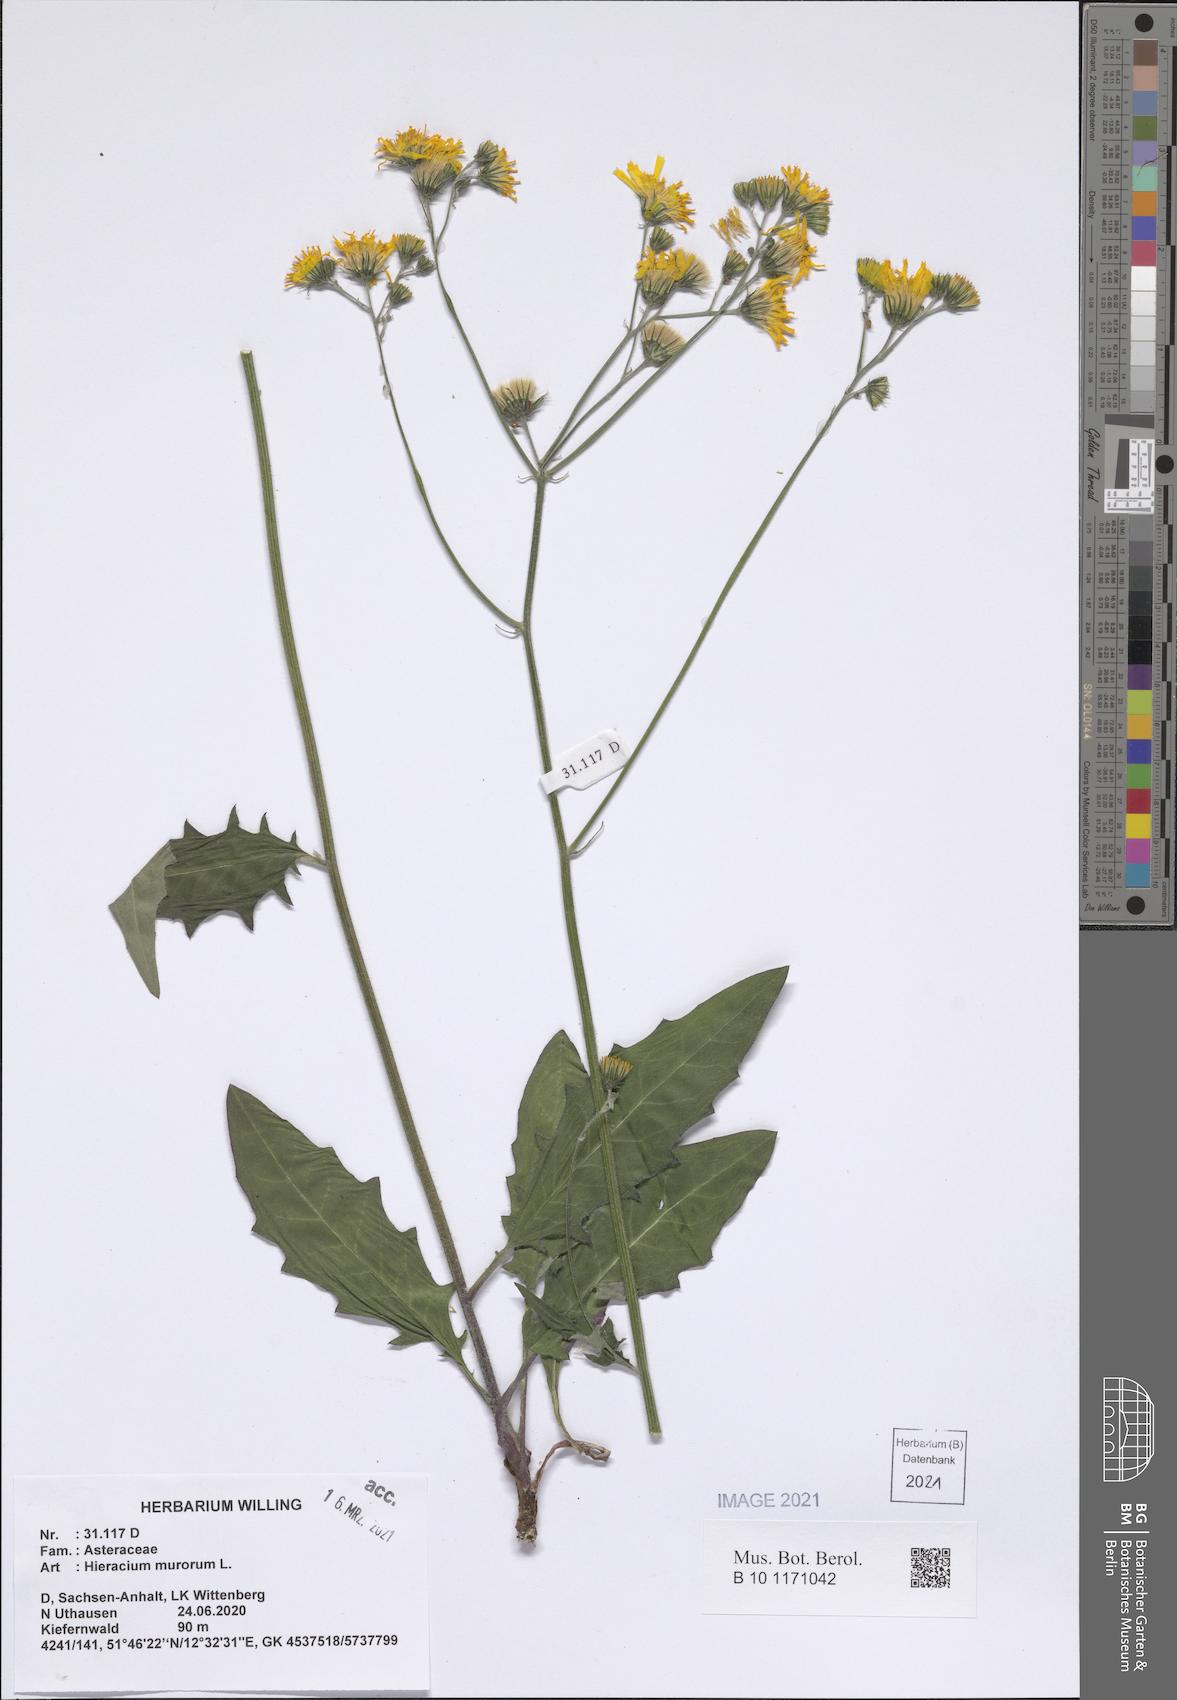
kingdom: Plantae
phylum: Tracheophyta
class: Magnoliopsida
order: Asterales
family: Asteraceae
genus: Hieracium
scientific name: Hieracium murorum
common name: Wall hawkweed
